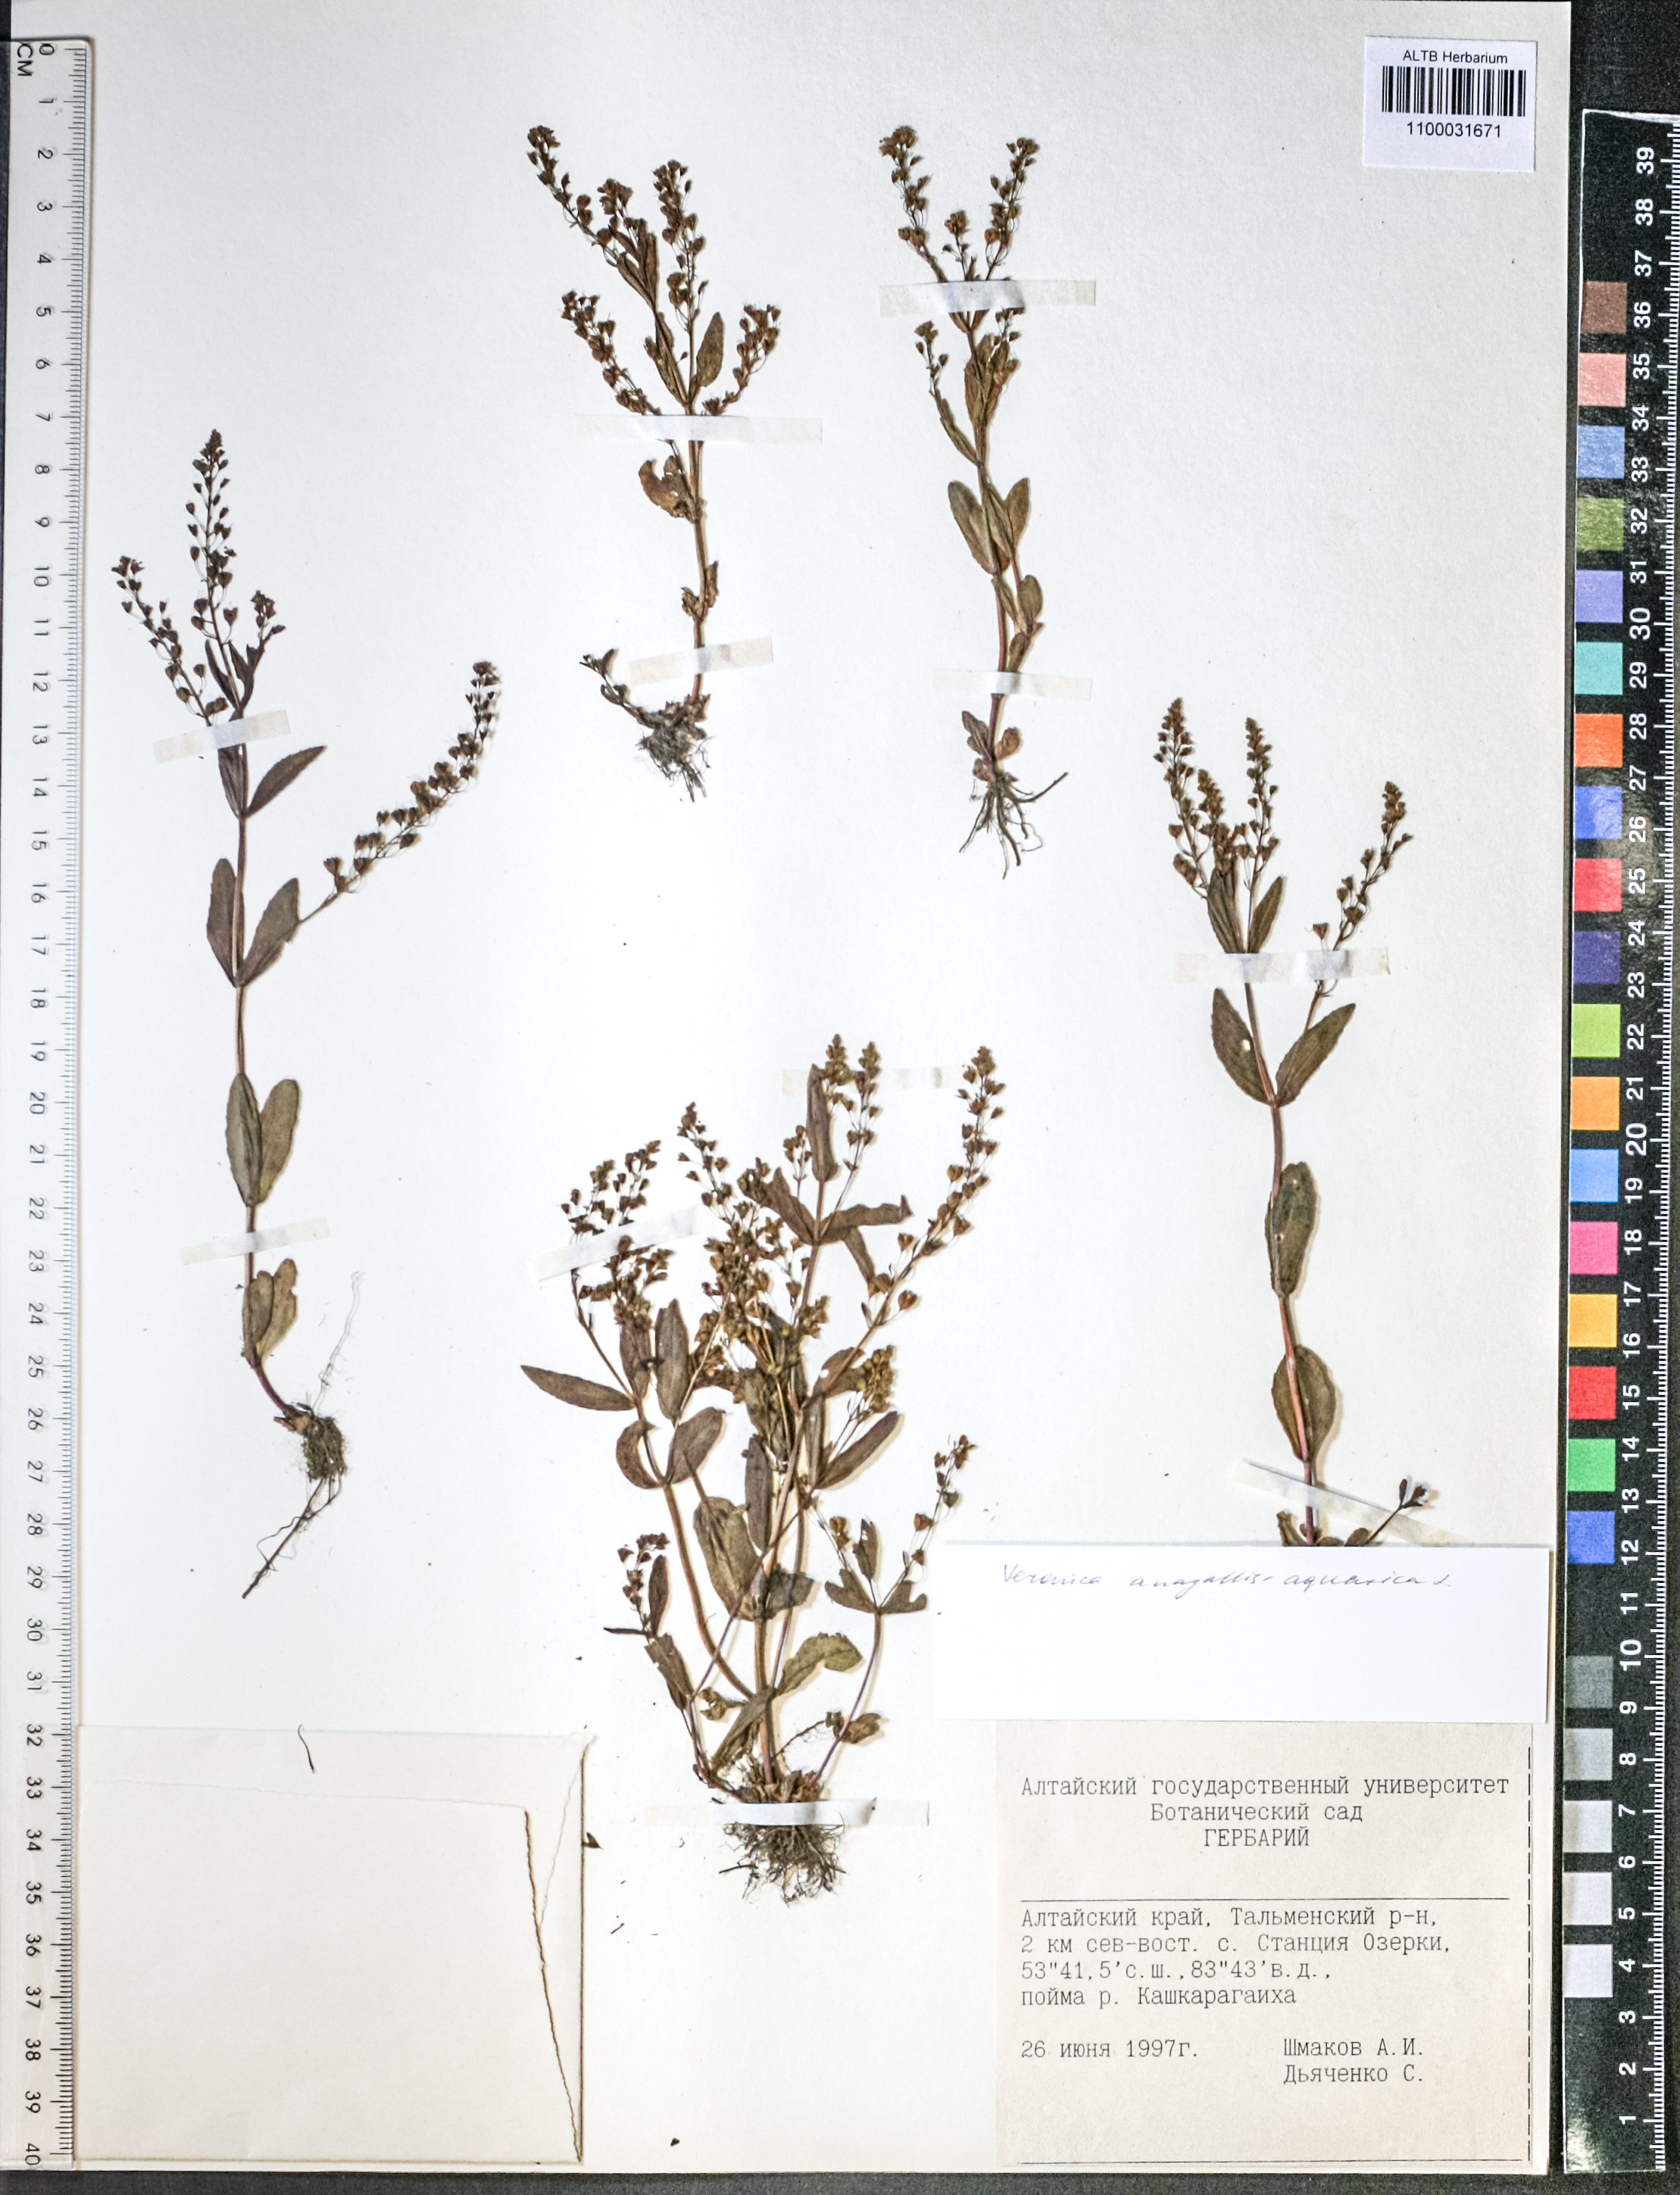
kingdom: Plantae
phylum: Tracheophyta
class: Magnoliopsida
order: Lamiales
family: Plantaginaceae
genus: Veronica
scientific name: Veronica anagallis-aquatica
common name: Water speedwell
